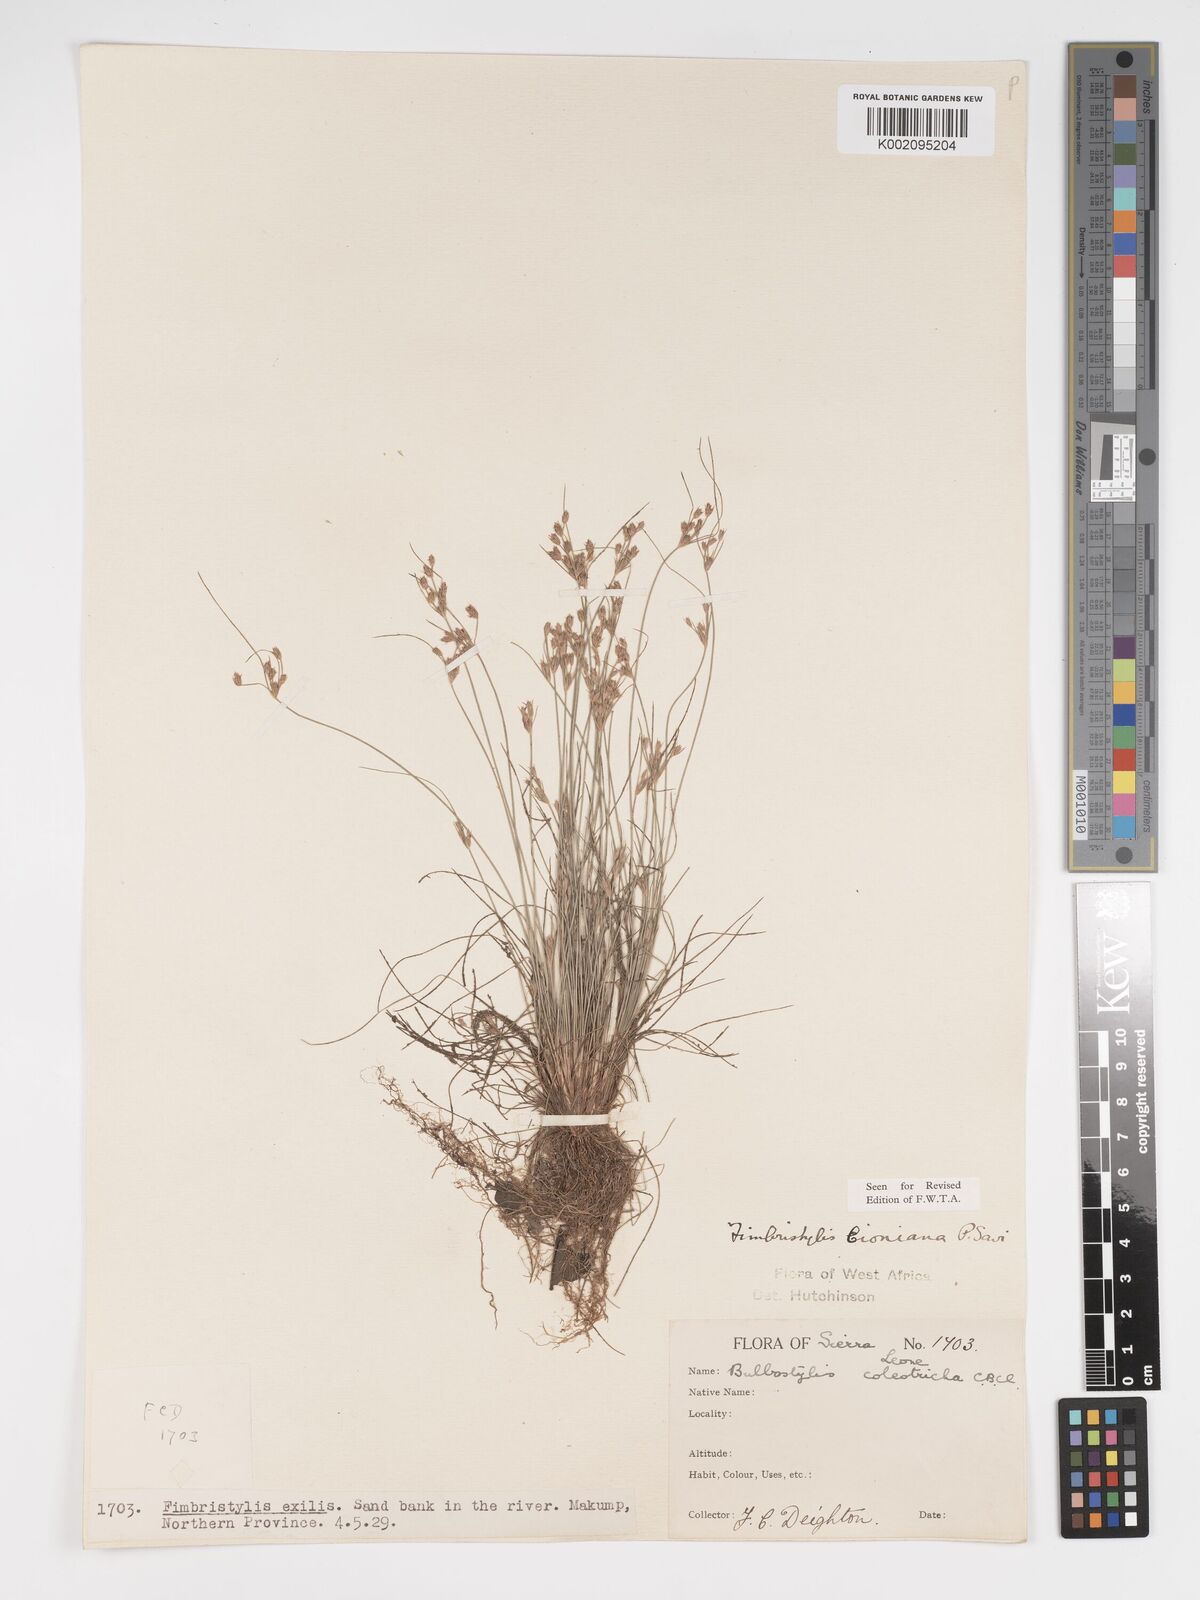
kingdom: Plantae
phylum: Tracheophyta
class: Liliopsida
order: Poales
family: Cyperaceae
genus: Bulbostylis
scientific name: Bulbostylis cioniana
